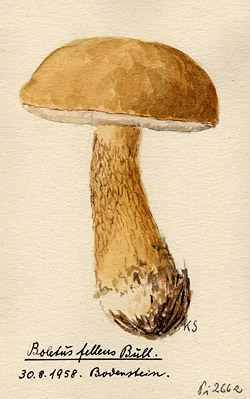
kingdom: Fungi
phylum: Basidiomycota
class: Agaricomycetes
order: Boletales
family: Boletaceae
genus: Tylopilus
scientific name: Tylopilus felleus
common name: Bitter bolete
